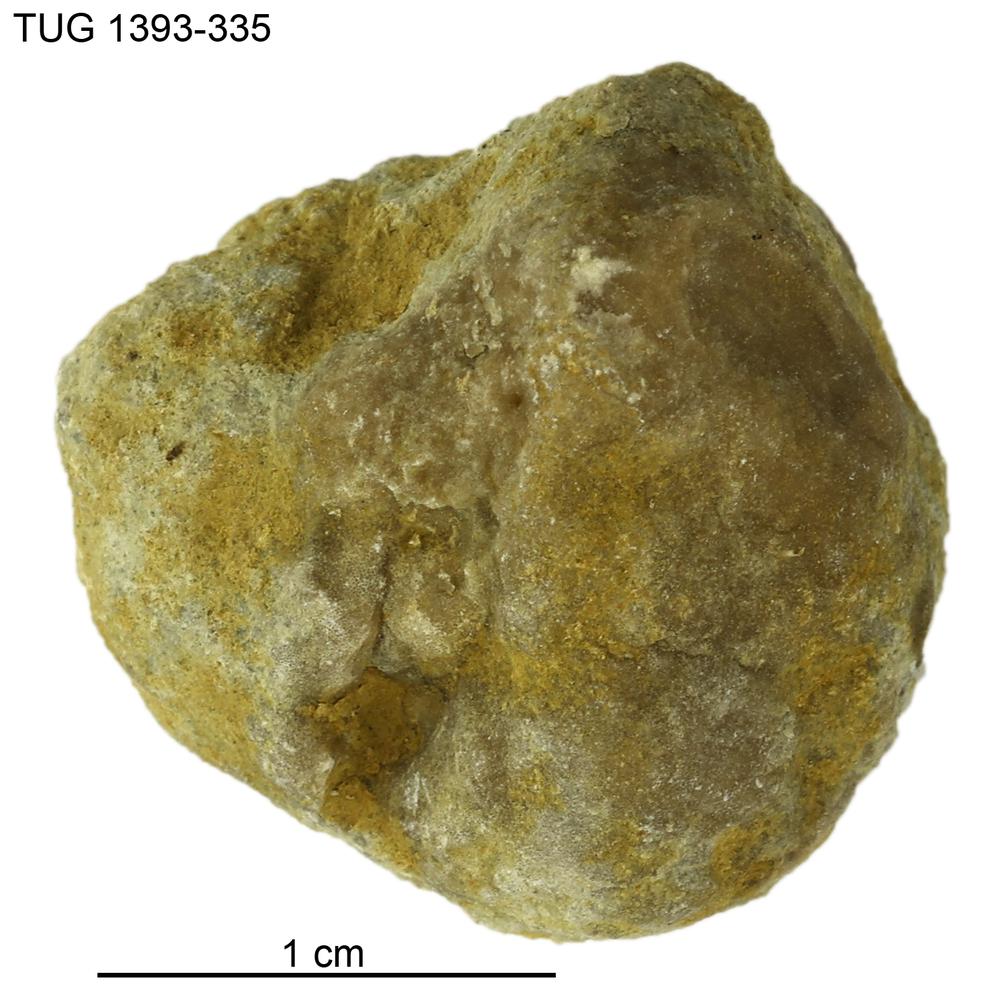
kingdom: Animalia
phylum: Bryozoa
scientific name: Bryozoa
